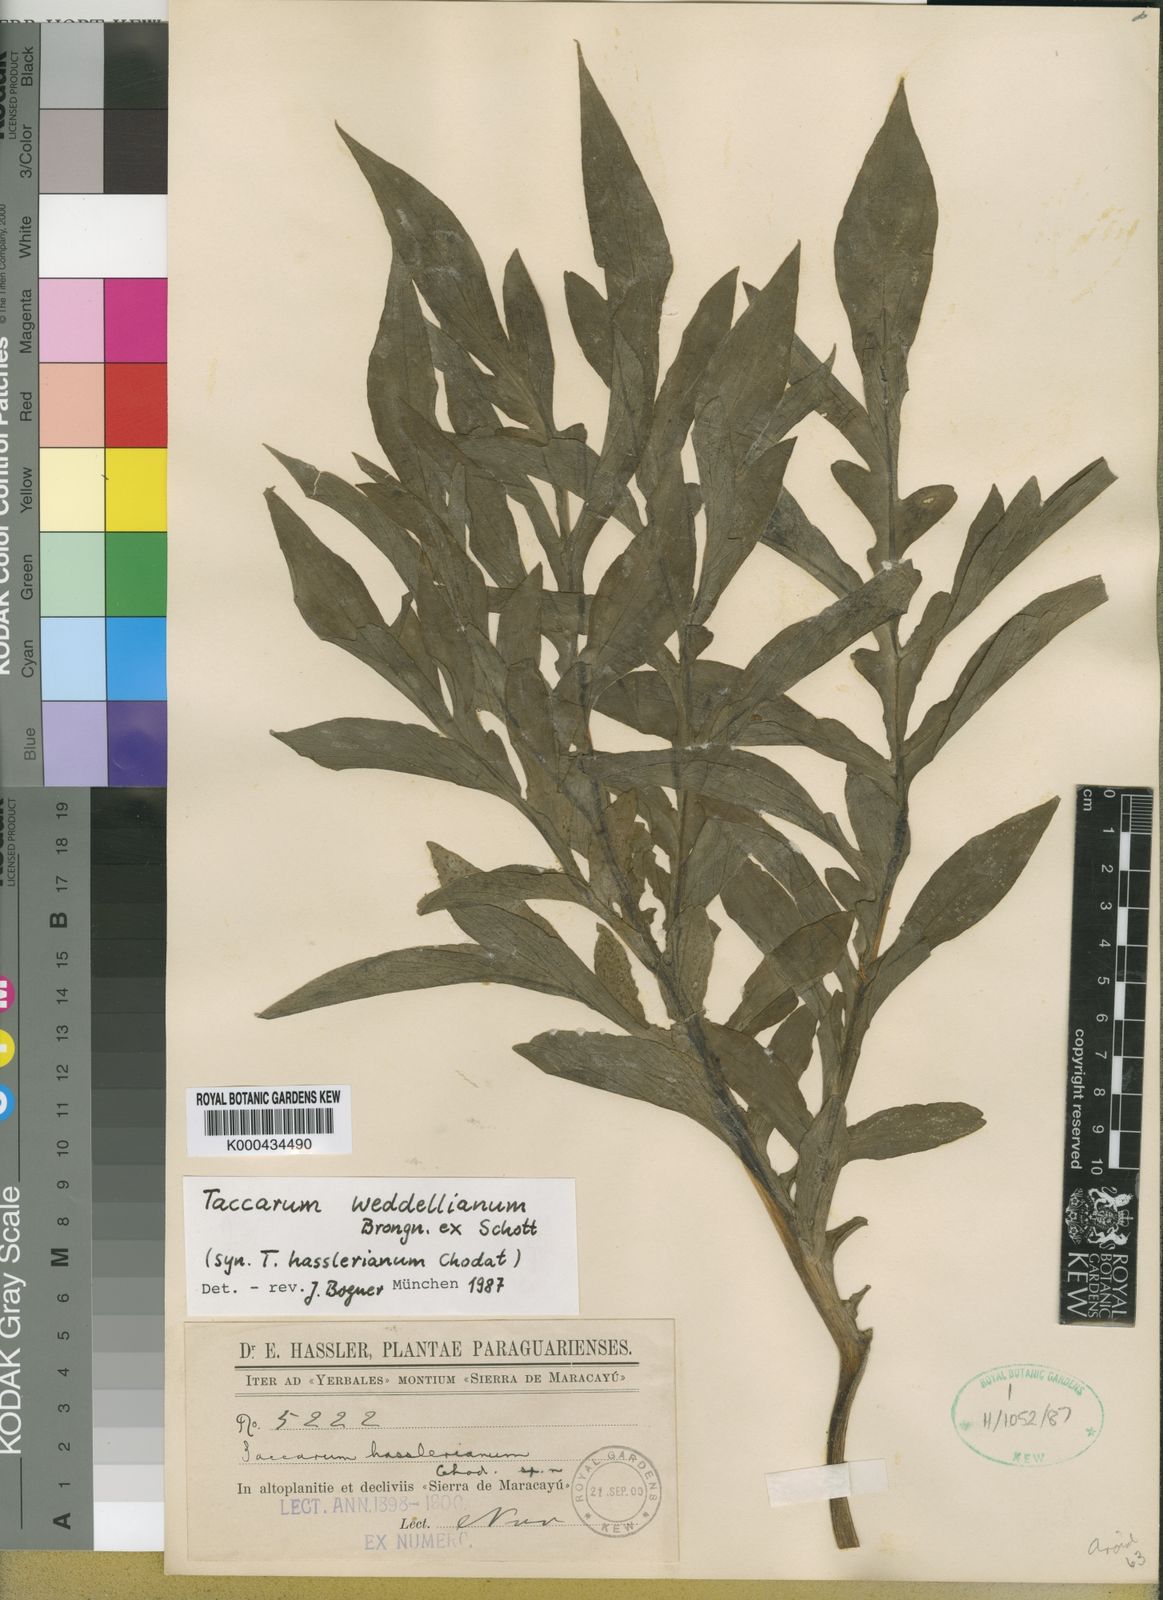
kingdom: Plantae
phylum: Tracheophyta
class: Liliopsida
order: Alismatales
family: Araceae
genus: Taccarum
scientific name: Taccarum weddellianum
